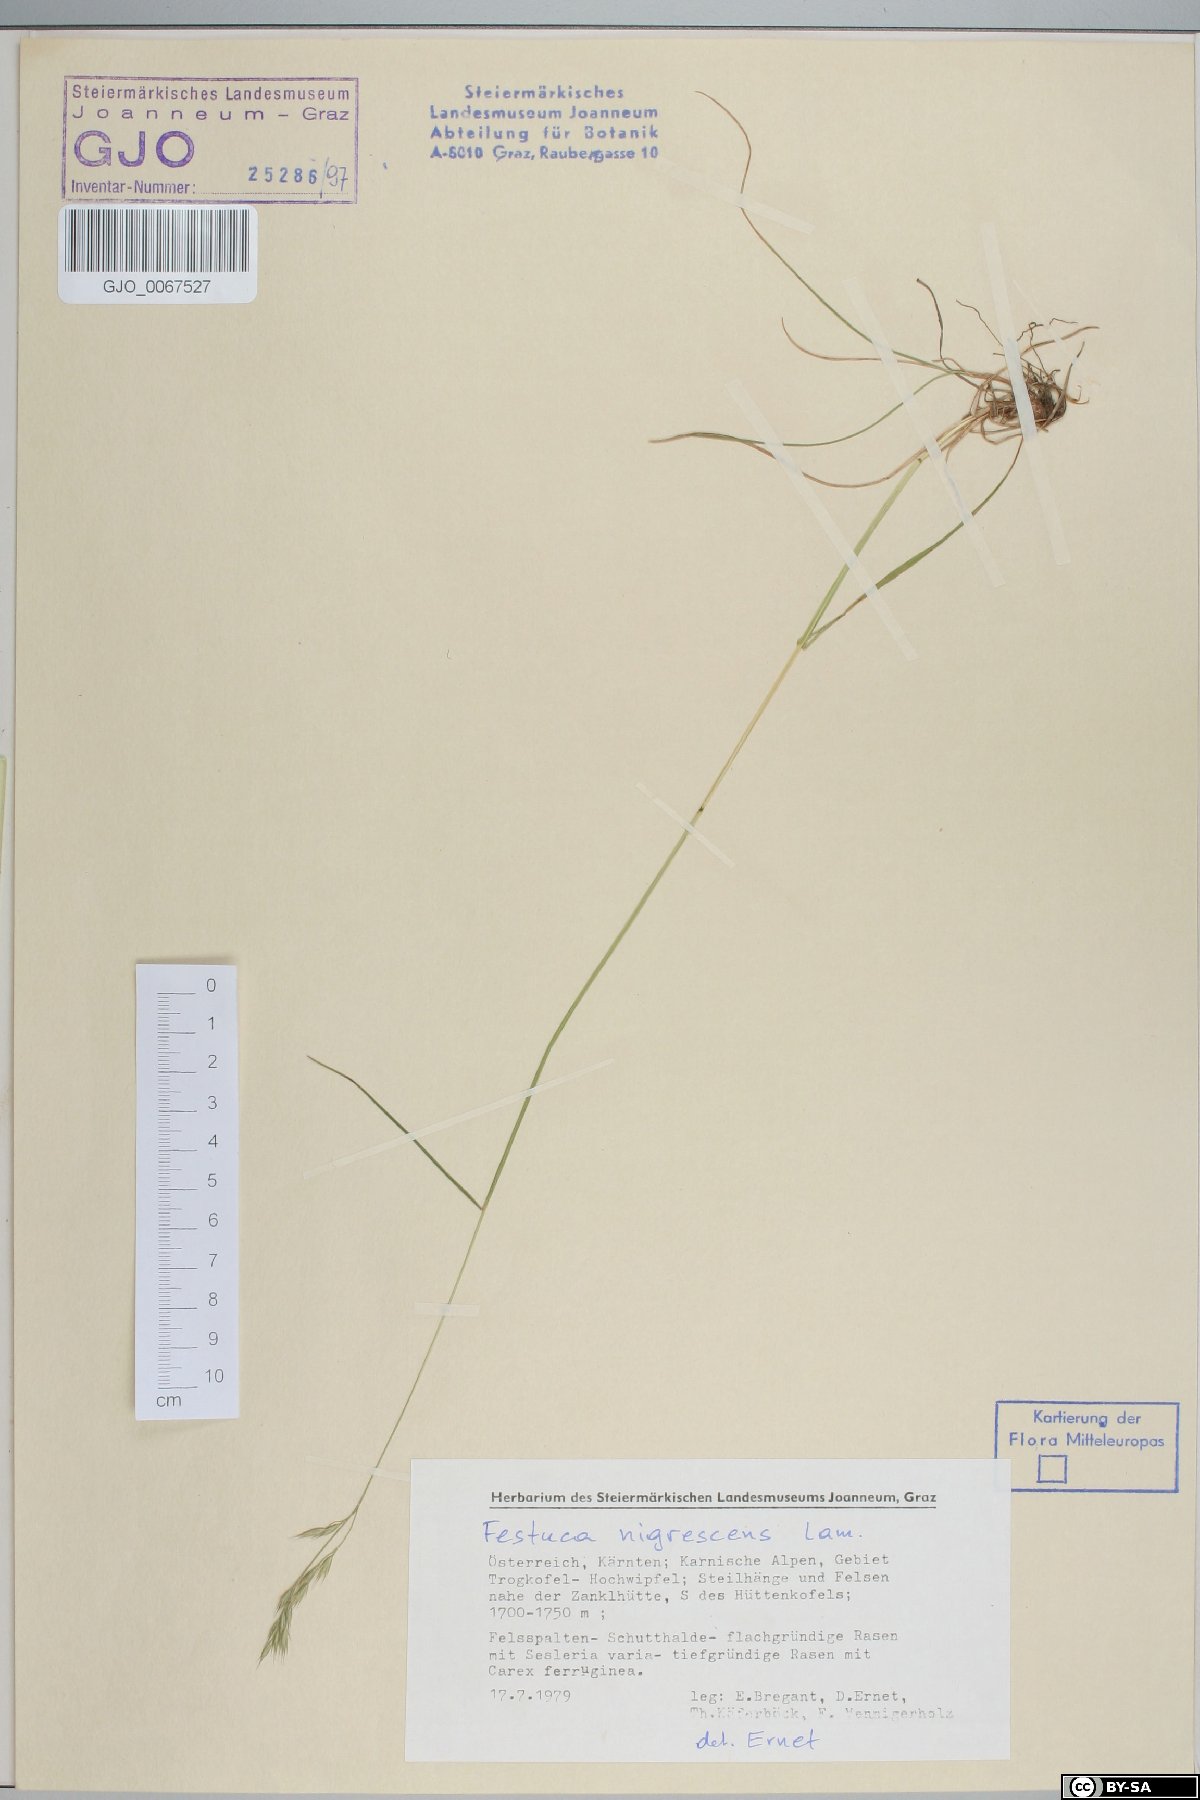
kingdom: Plantae
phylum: Tracheophyta
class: Liliopsida
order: Poales
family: Poaceae
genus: Festuca
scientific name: Festuca nigrescens
